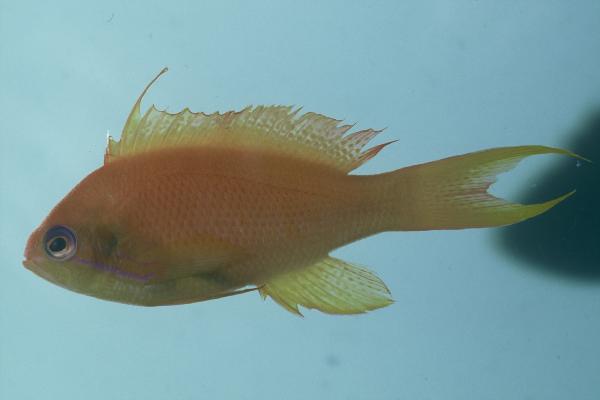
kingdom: Animalia
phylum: Chordata
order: Perciformes
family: Serranidae
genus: Pseudanthias
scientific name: Pseudanthias squamipinnis
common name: Scalefin anthias
